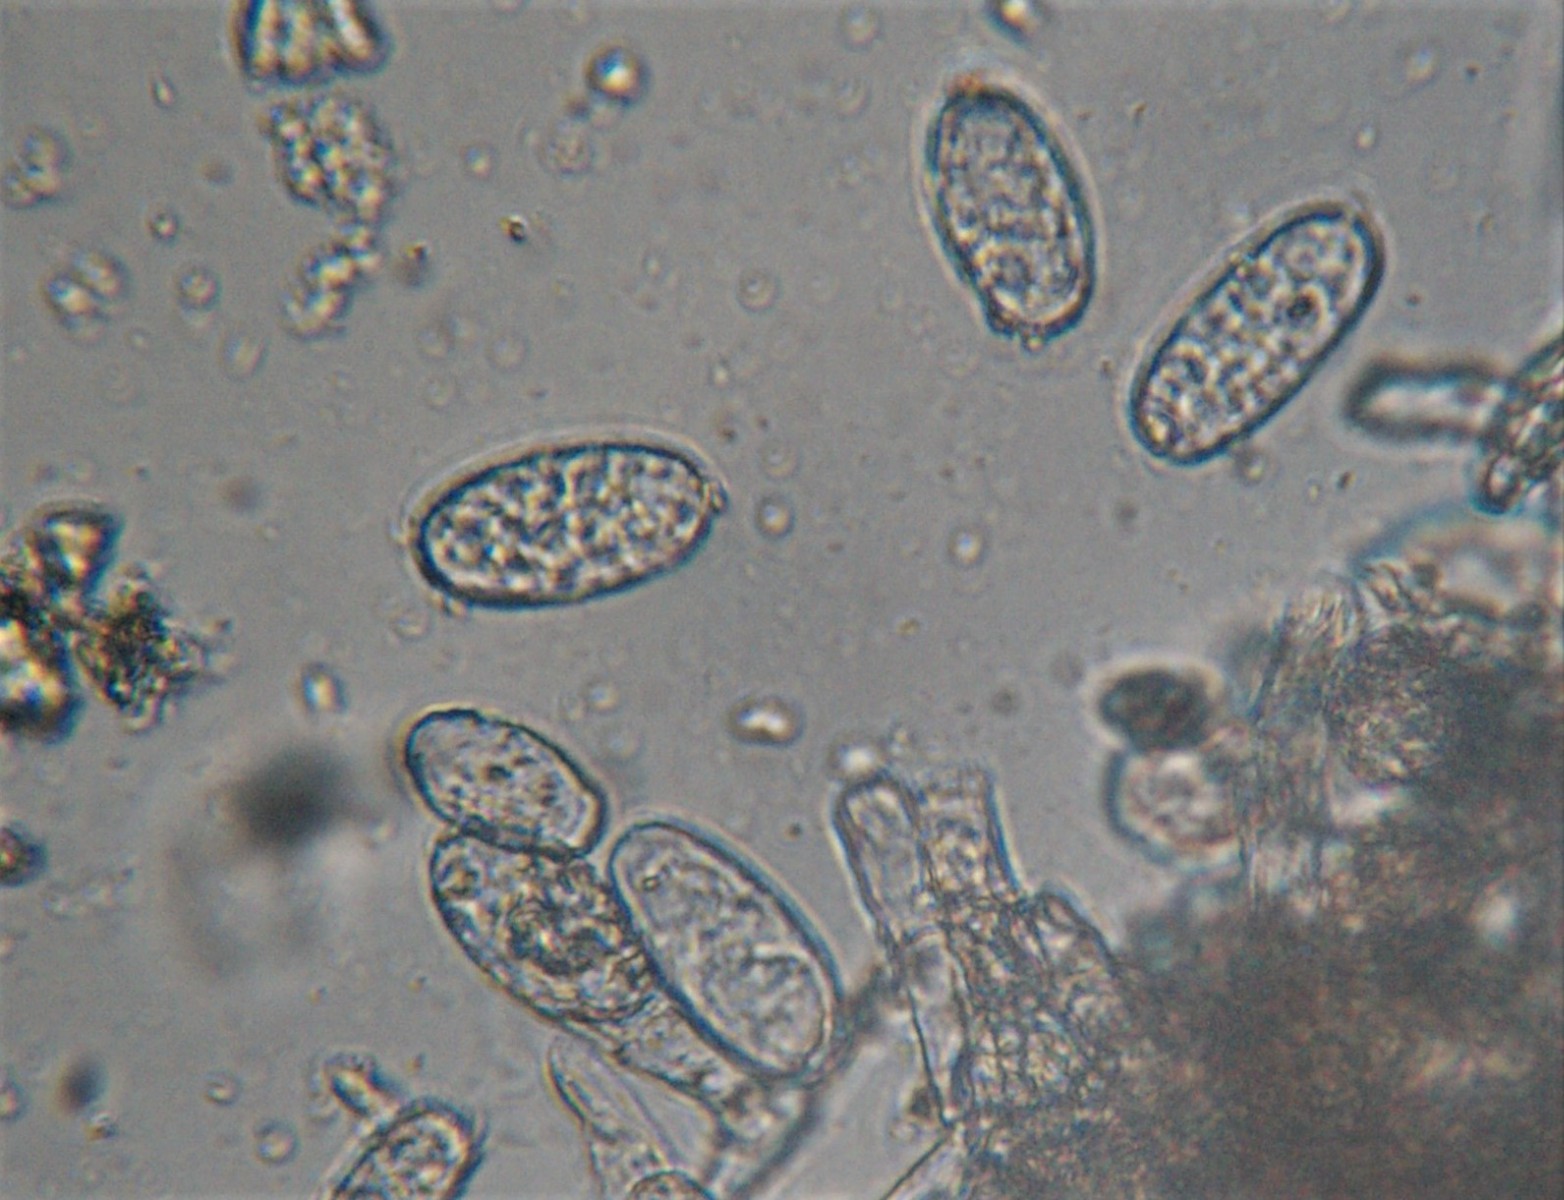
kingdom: Fungi
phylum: Ascomycota
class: Leotiomycetes
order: Helotiales
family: Erysiphaceae
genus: Erysiphe
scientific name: Erysiphe sedi
